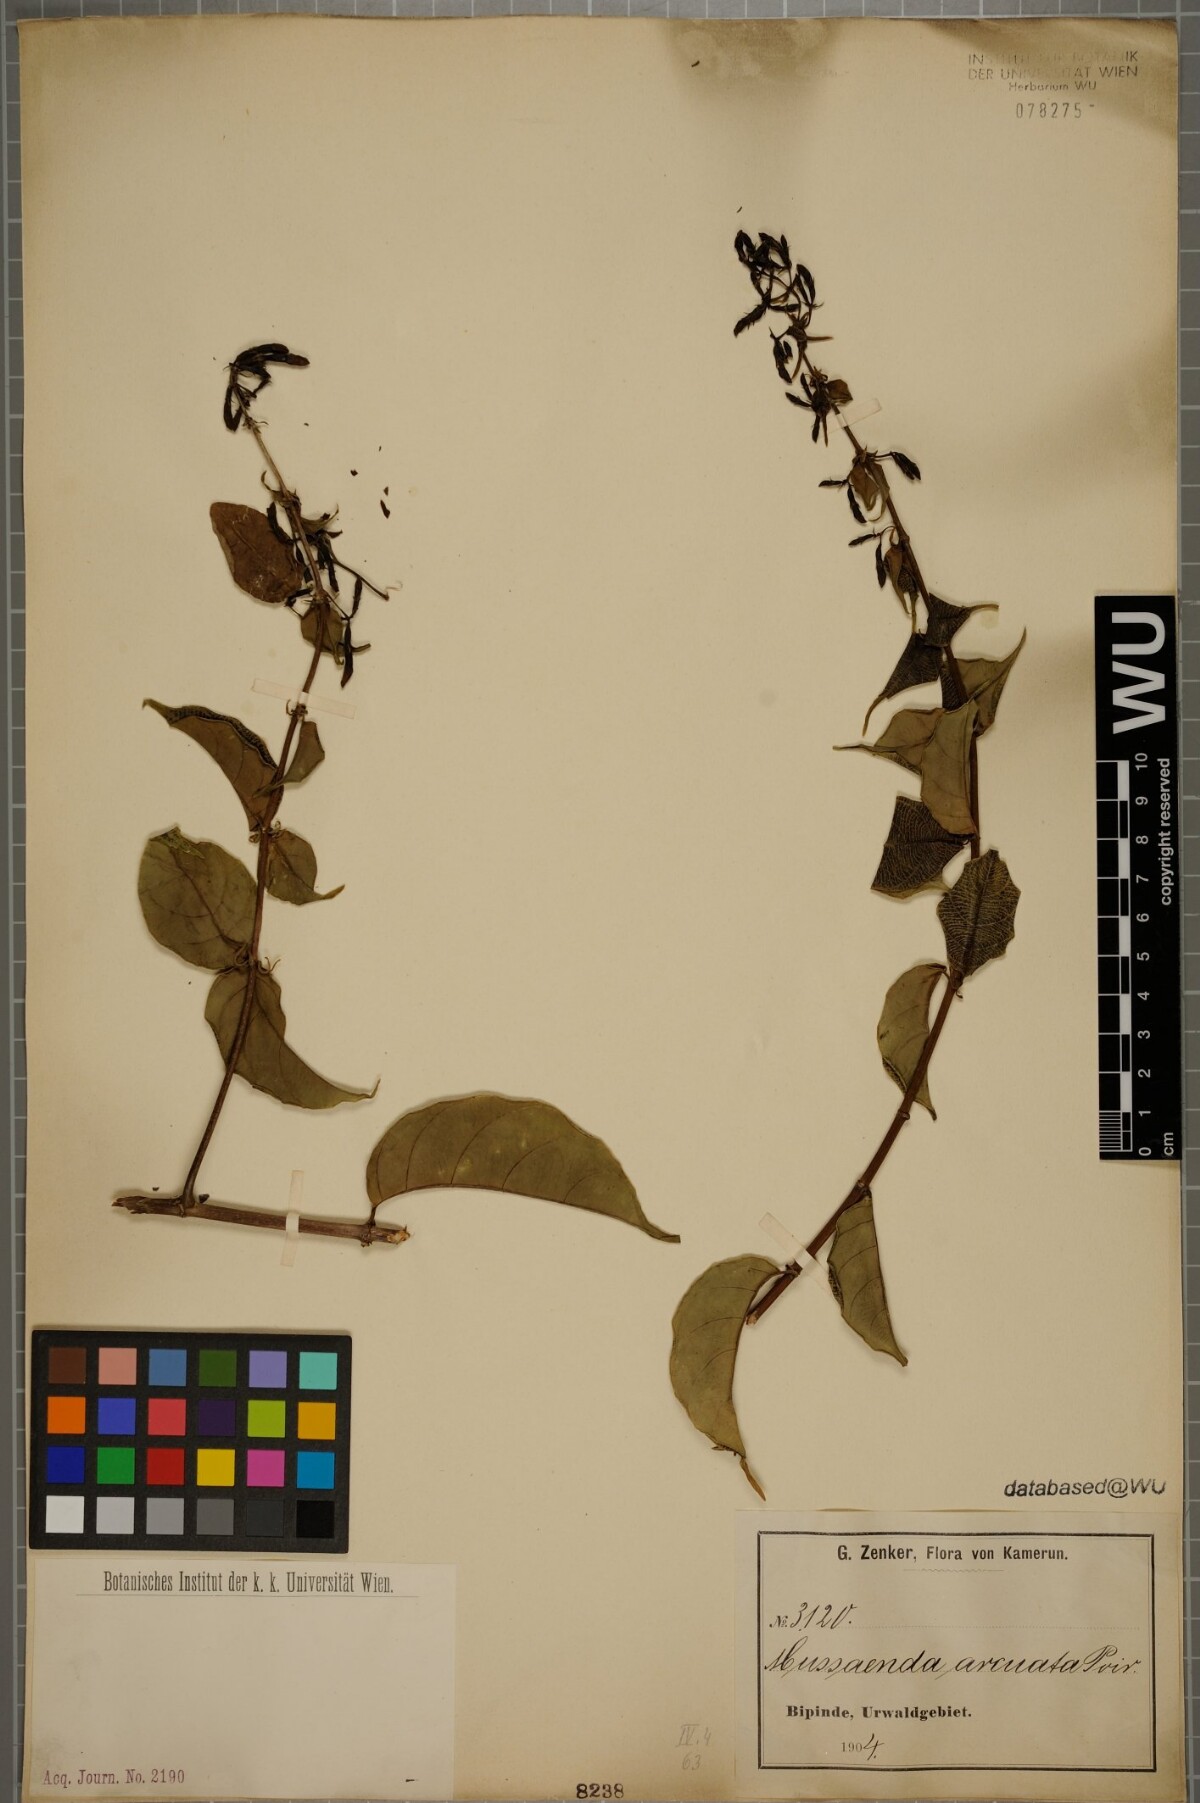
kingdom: Plantae
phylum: Tracheophyta
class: Magnoliopsida
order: Gentianales
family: Rubiaceae
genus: Mussaenda
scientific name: Mussaenda arcuata
